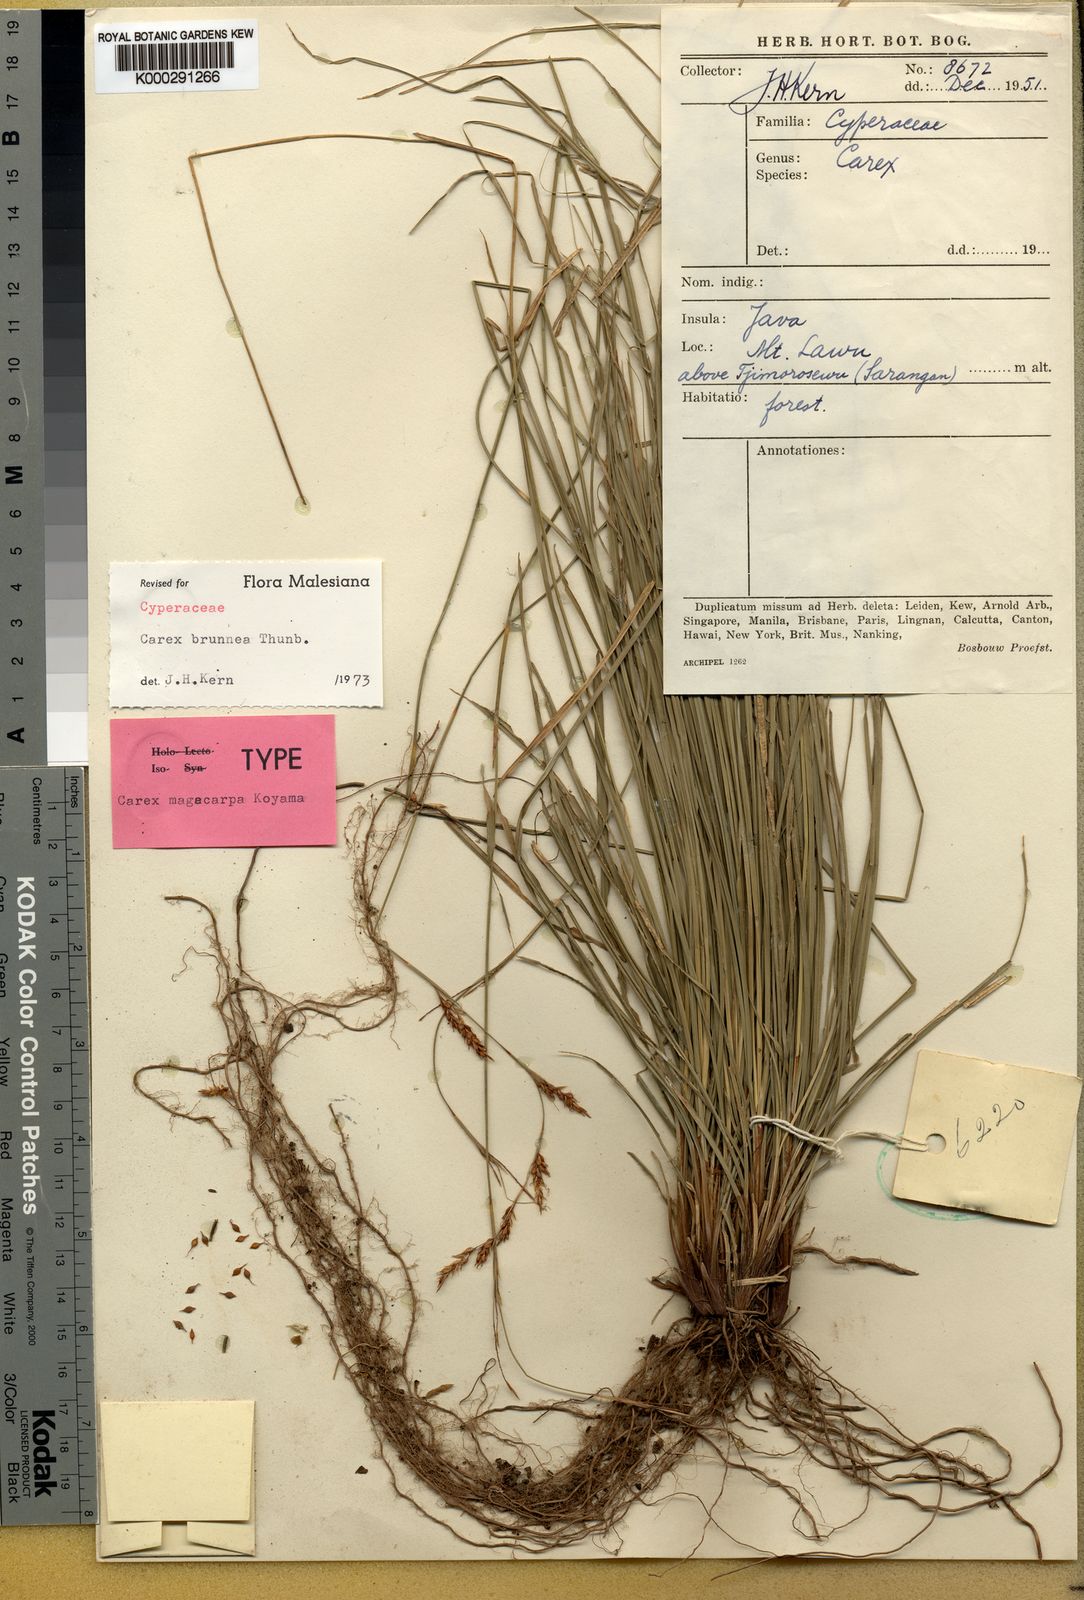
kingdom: Plantae
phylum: Tracheophyta
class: Liliopsida
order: Poales
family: Cyperaceae
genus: Carex
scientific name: Carex brunnea
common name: Greater brown sedge
